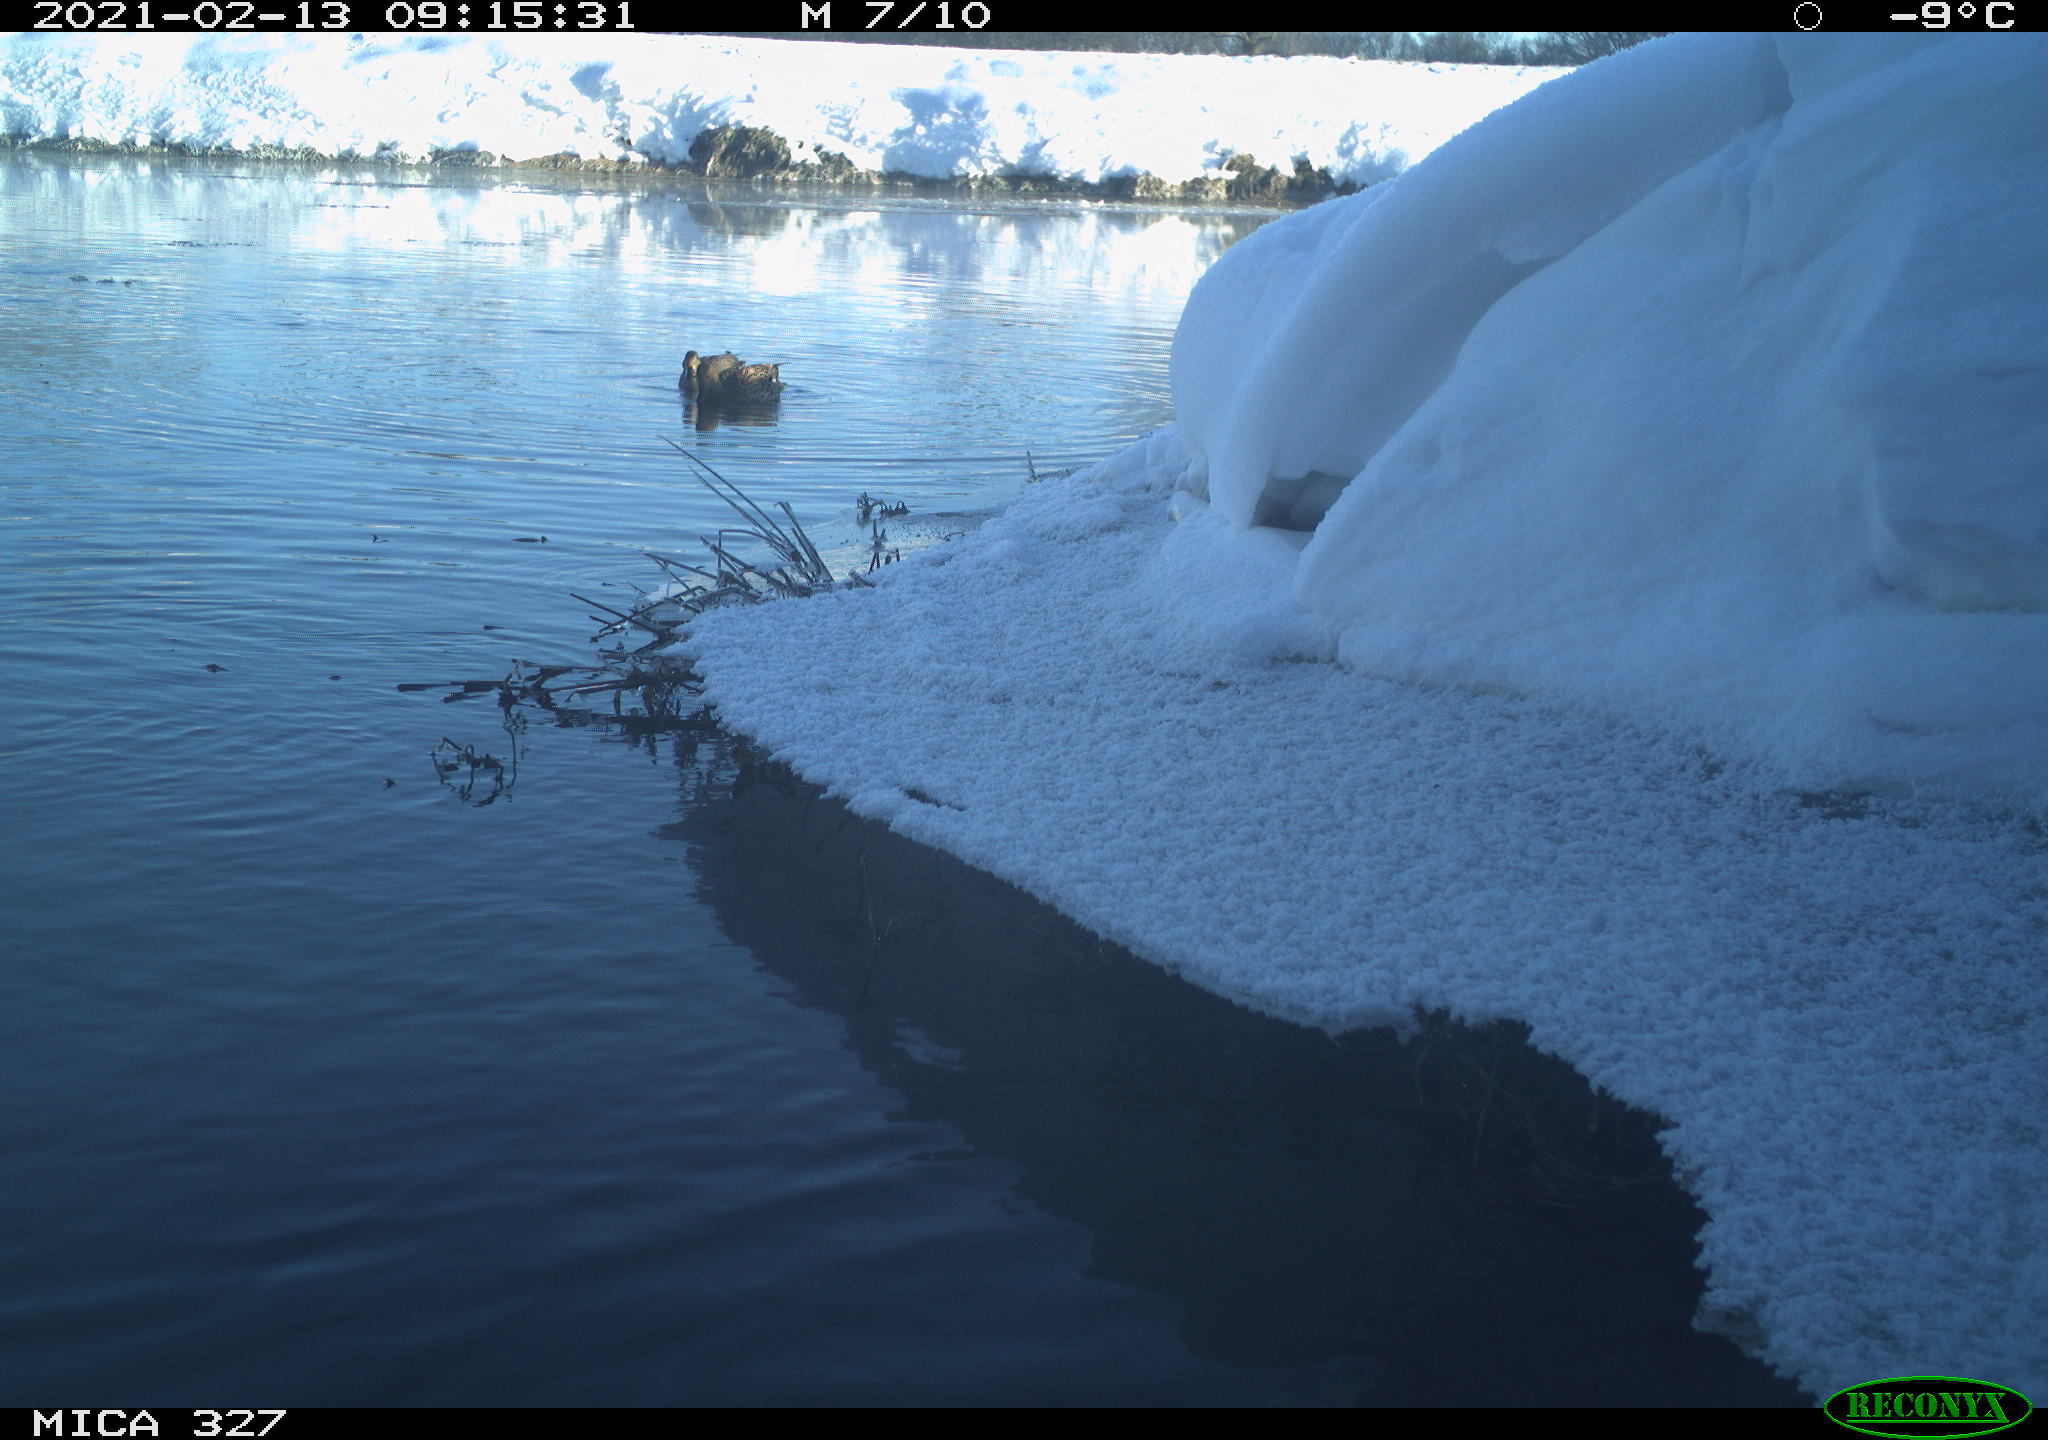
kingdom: Animalia
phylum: Chordata
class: Aves
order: Anseriformes
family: Anatidae
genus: Anas
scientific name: Anas
